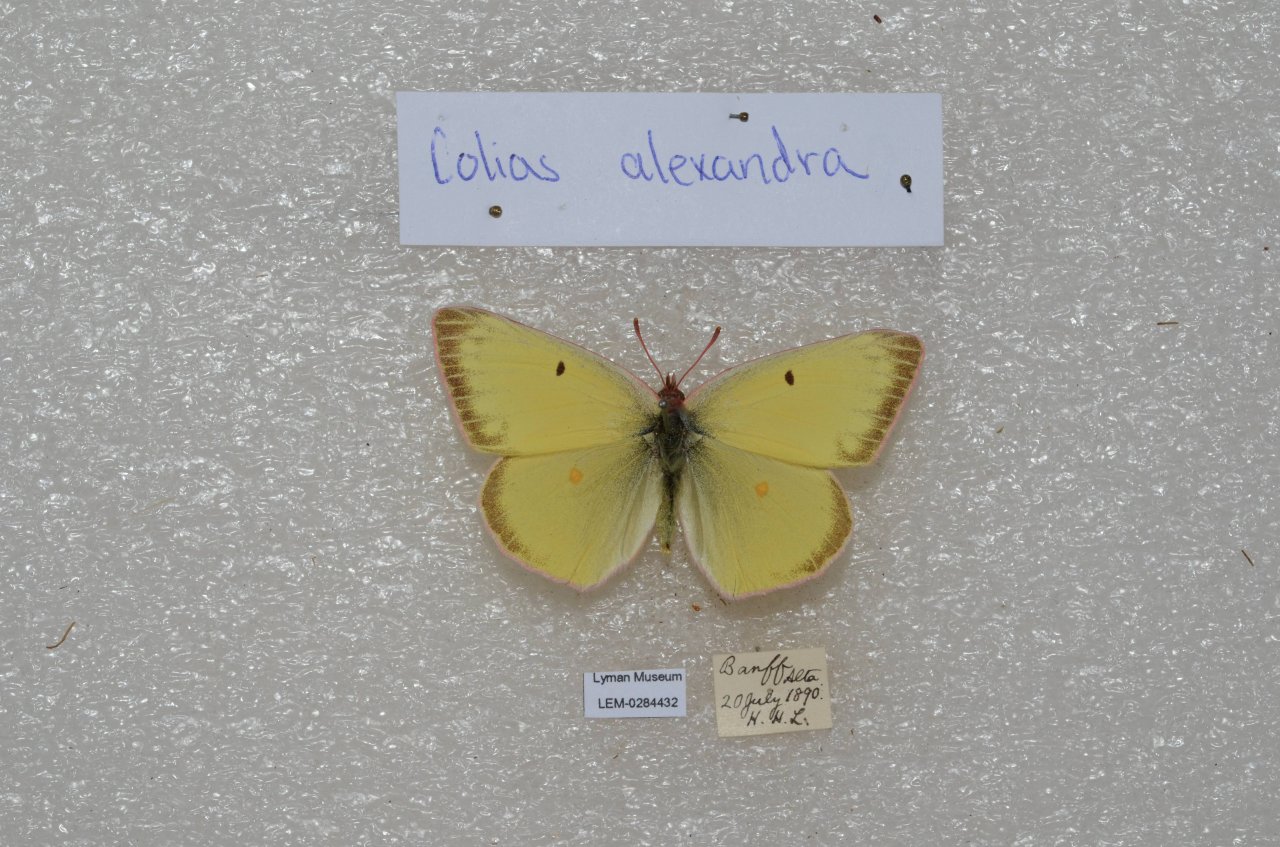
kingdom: Animalia
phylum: Arthropoda
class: Insecta
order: Lepidoptera
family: Pieridae
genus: Colias
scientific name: Colias alexandra
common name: Queen Alexandra's Sulphur
